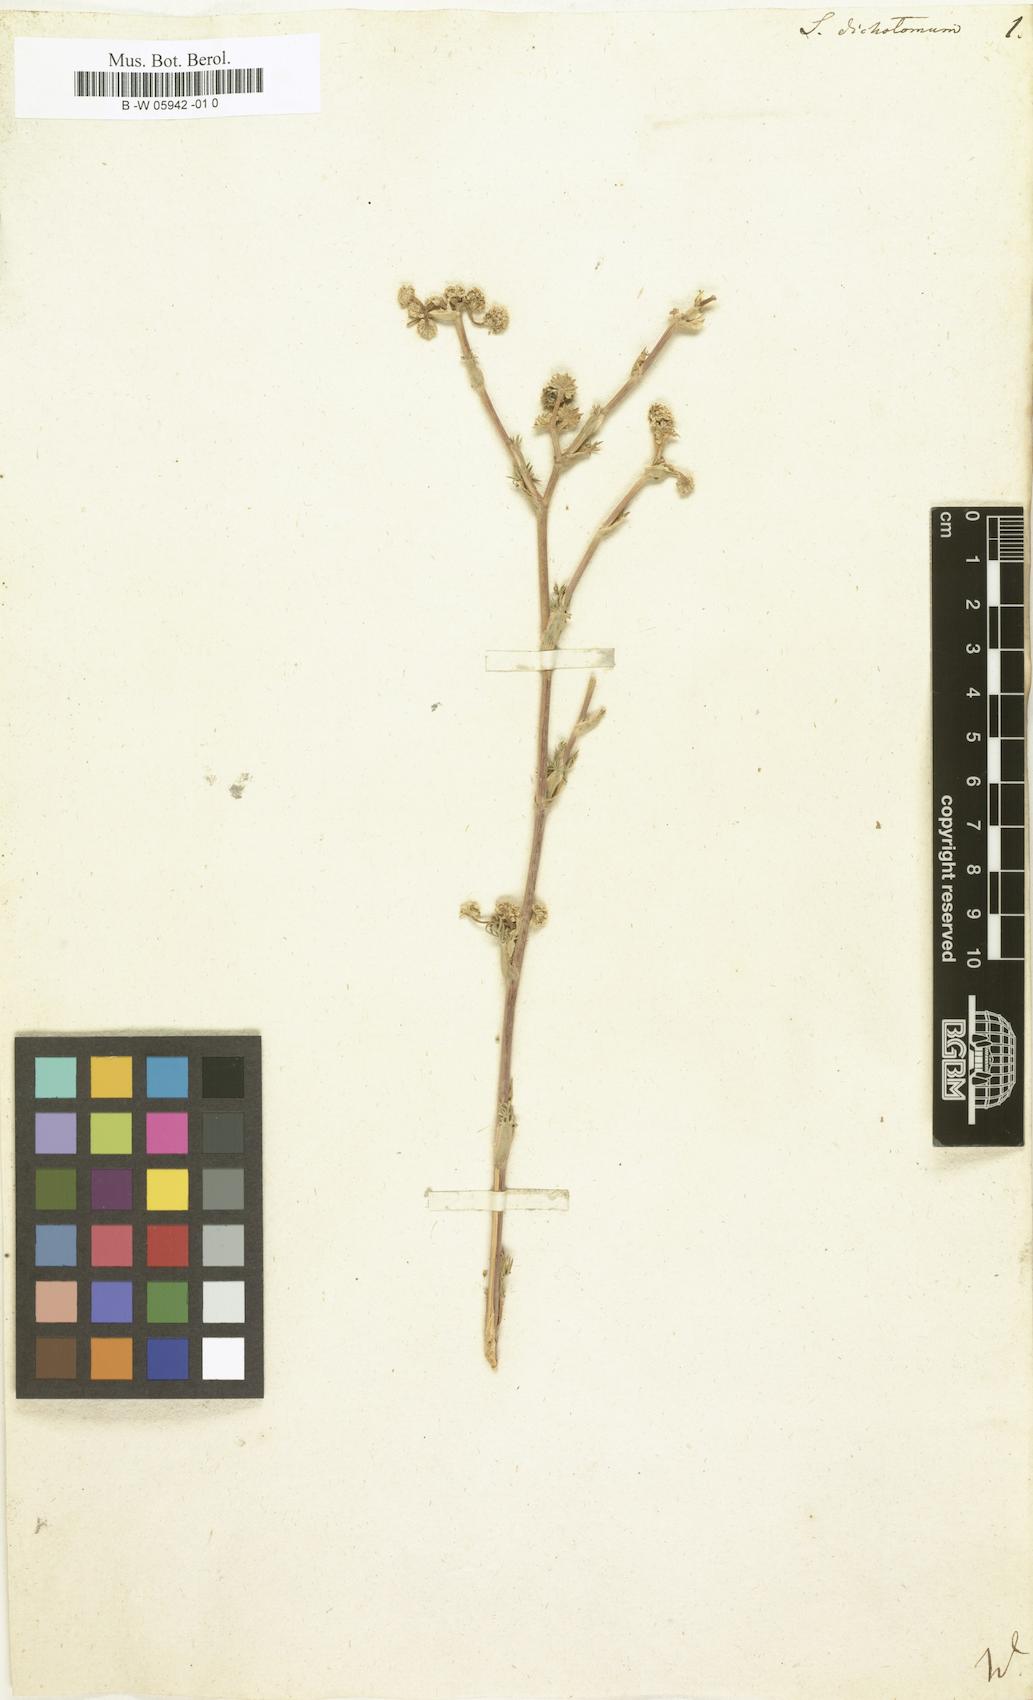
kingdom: Plantae
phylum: Tracheophyta
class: Magnoliopsida
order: Apiales
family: Apiaceae
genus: Seseli
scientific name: Seseli dichotomum
